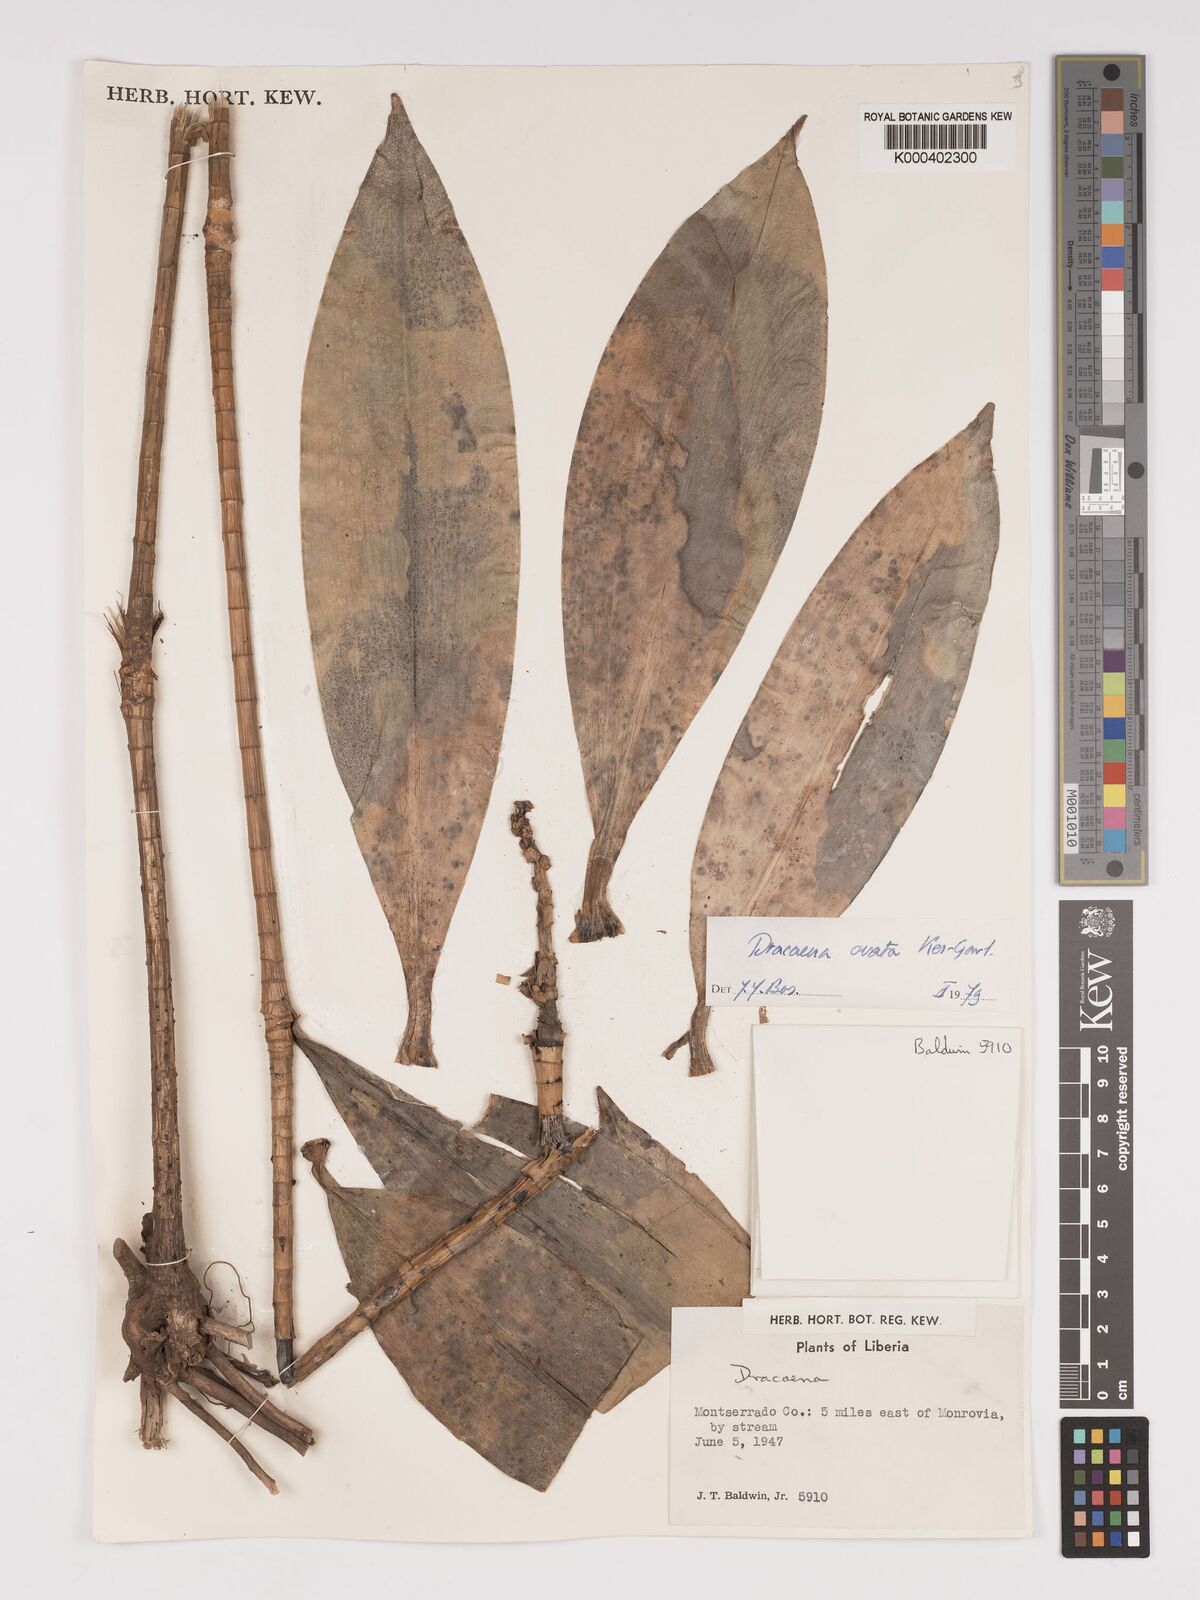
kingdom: Plantae
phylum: Tracheophyta
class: Liliopsida
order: Asparagales
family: Asparagaceae
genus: Dracaena
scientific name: Dracaena ovata
